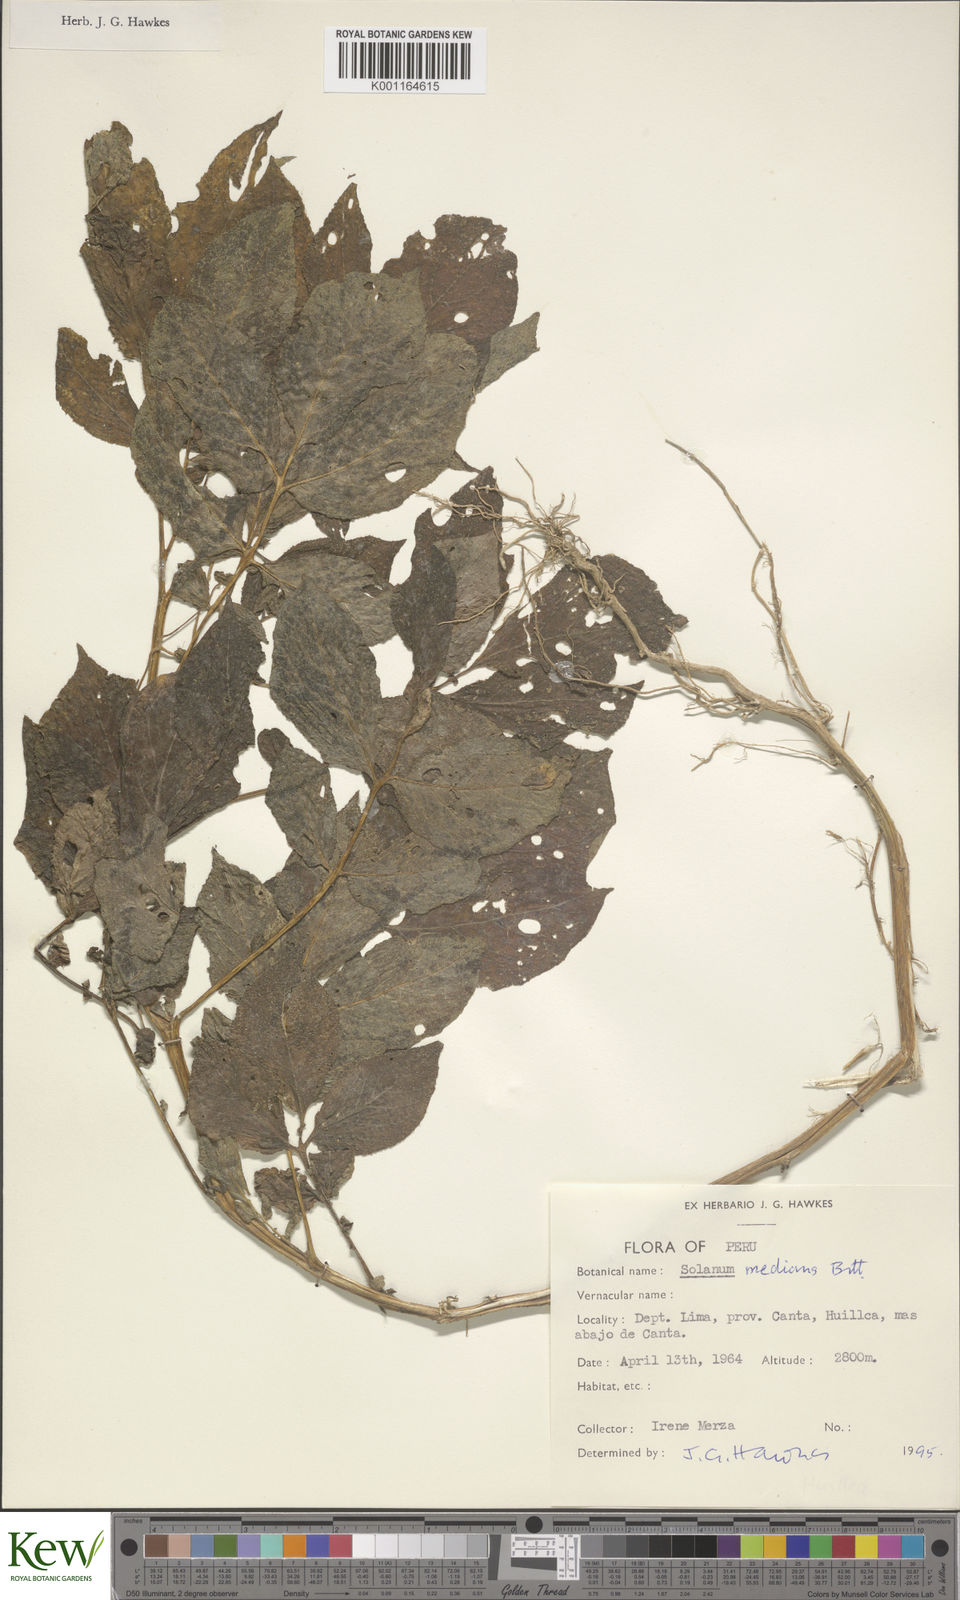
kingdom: Plantae
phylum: Tracheophyta
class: Magnoliopsida
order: Solanales
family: Solanaceae
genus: Solanum
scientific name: Solanum medians
